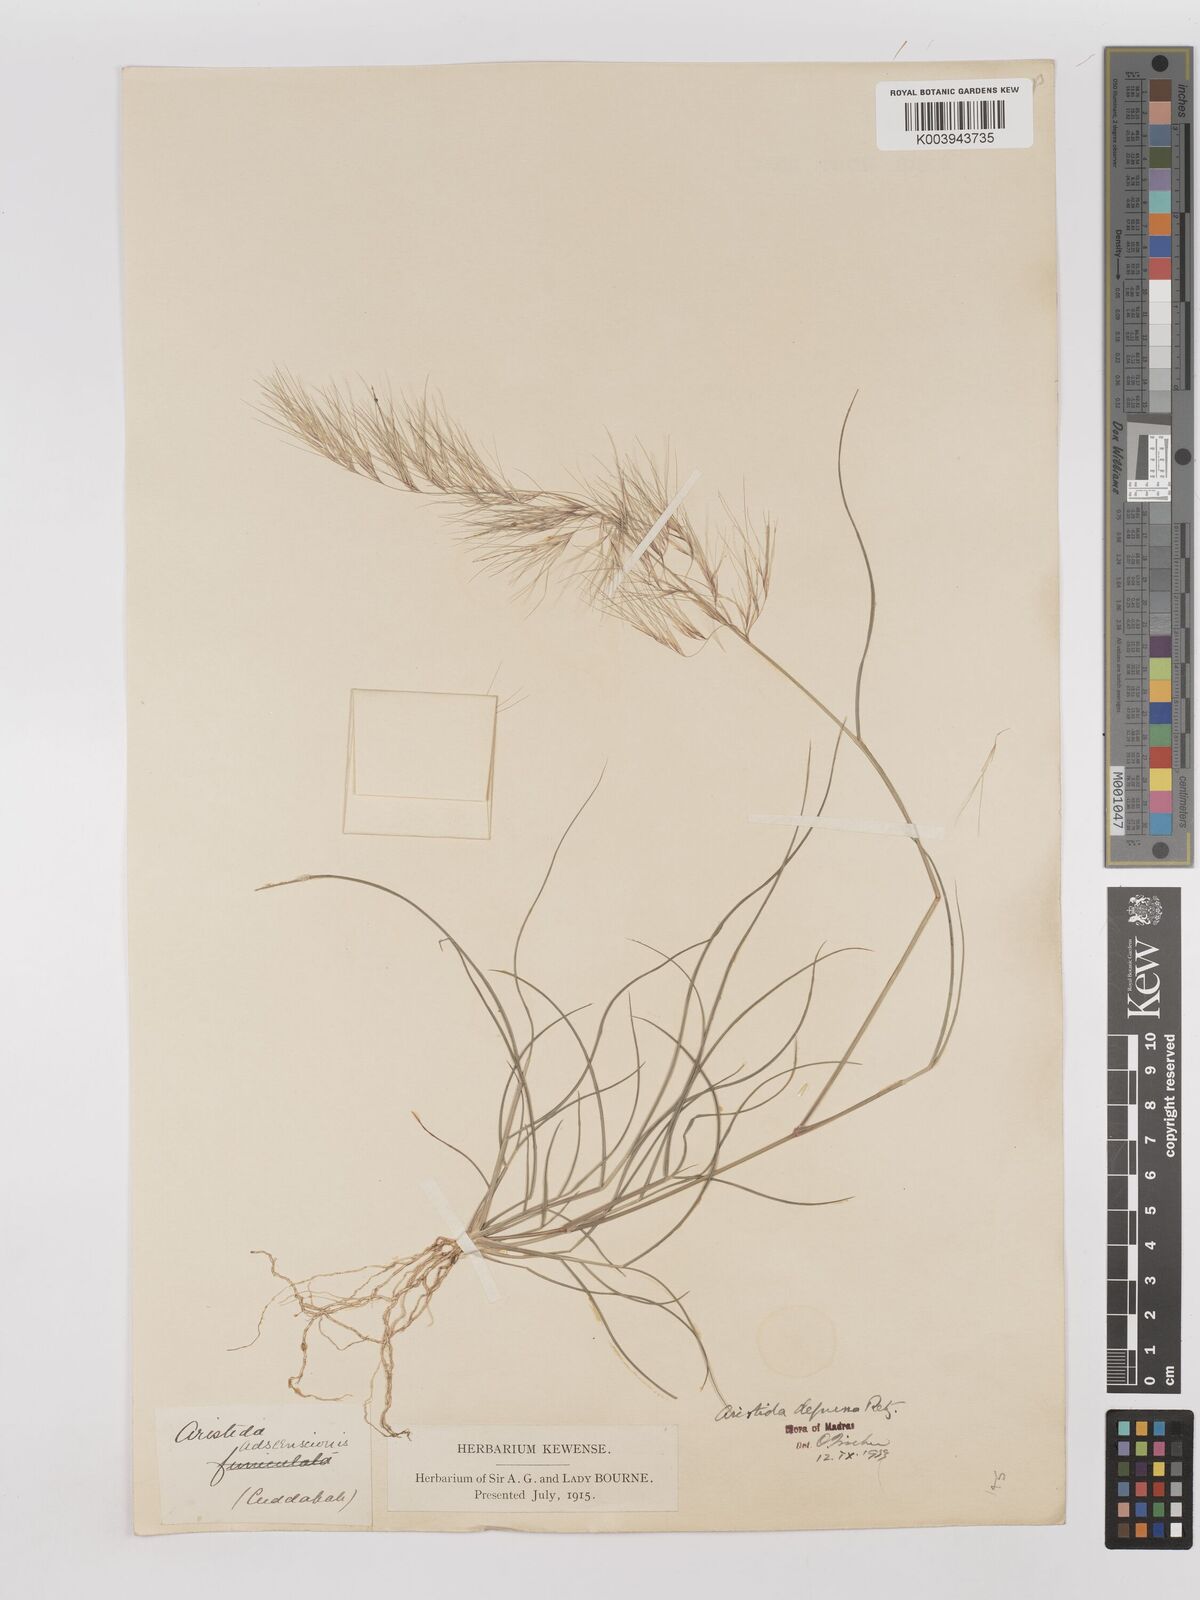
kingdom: Plantae
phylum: Tracheophyta
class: Liliopsida
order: Poales
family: Poaceae
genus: Aristida
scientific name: Aristida adscensionis
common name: Sixweeks threeawn
